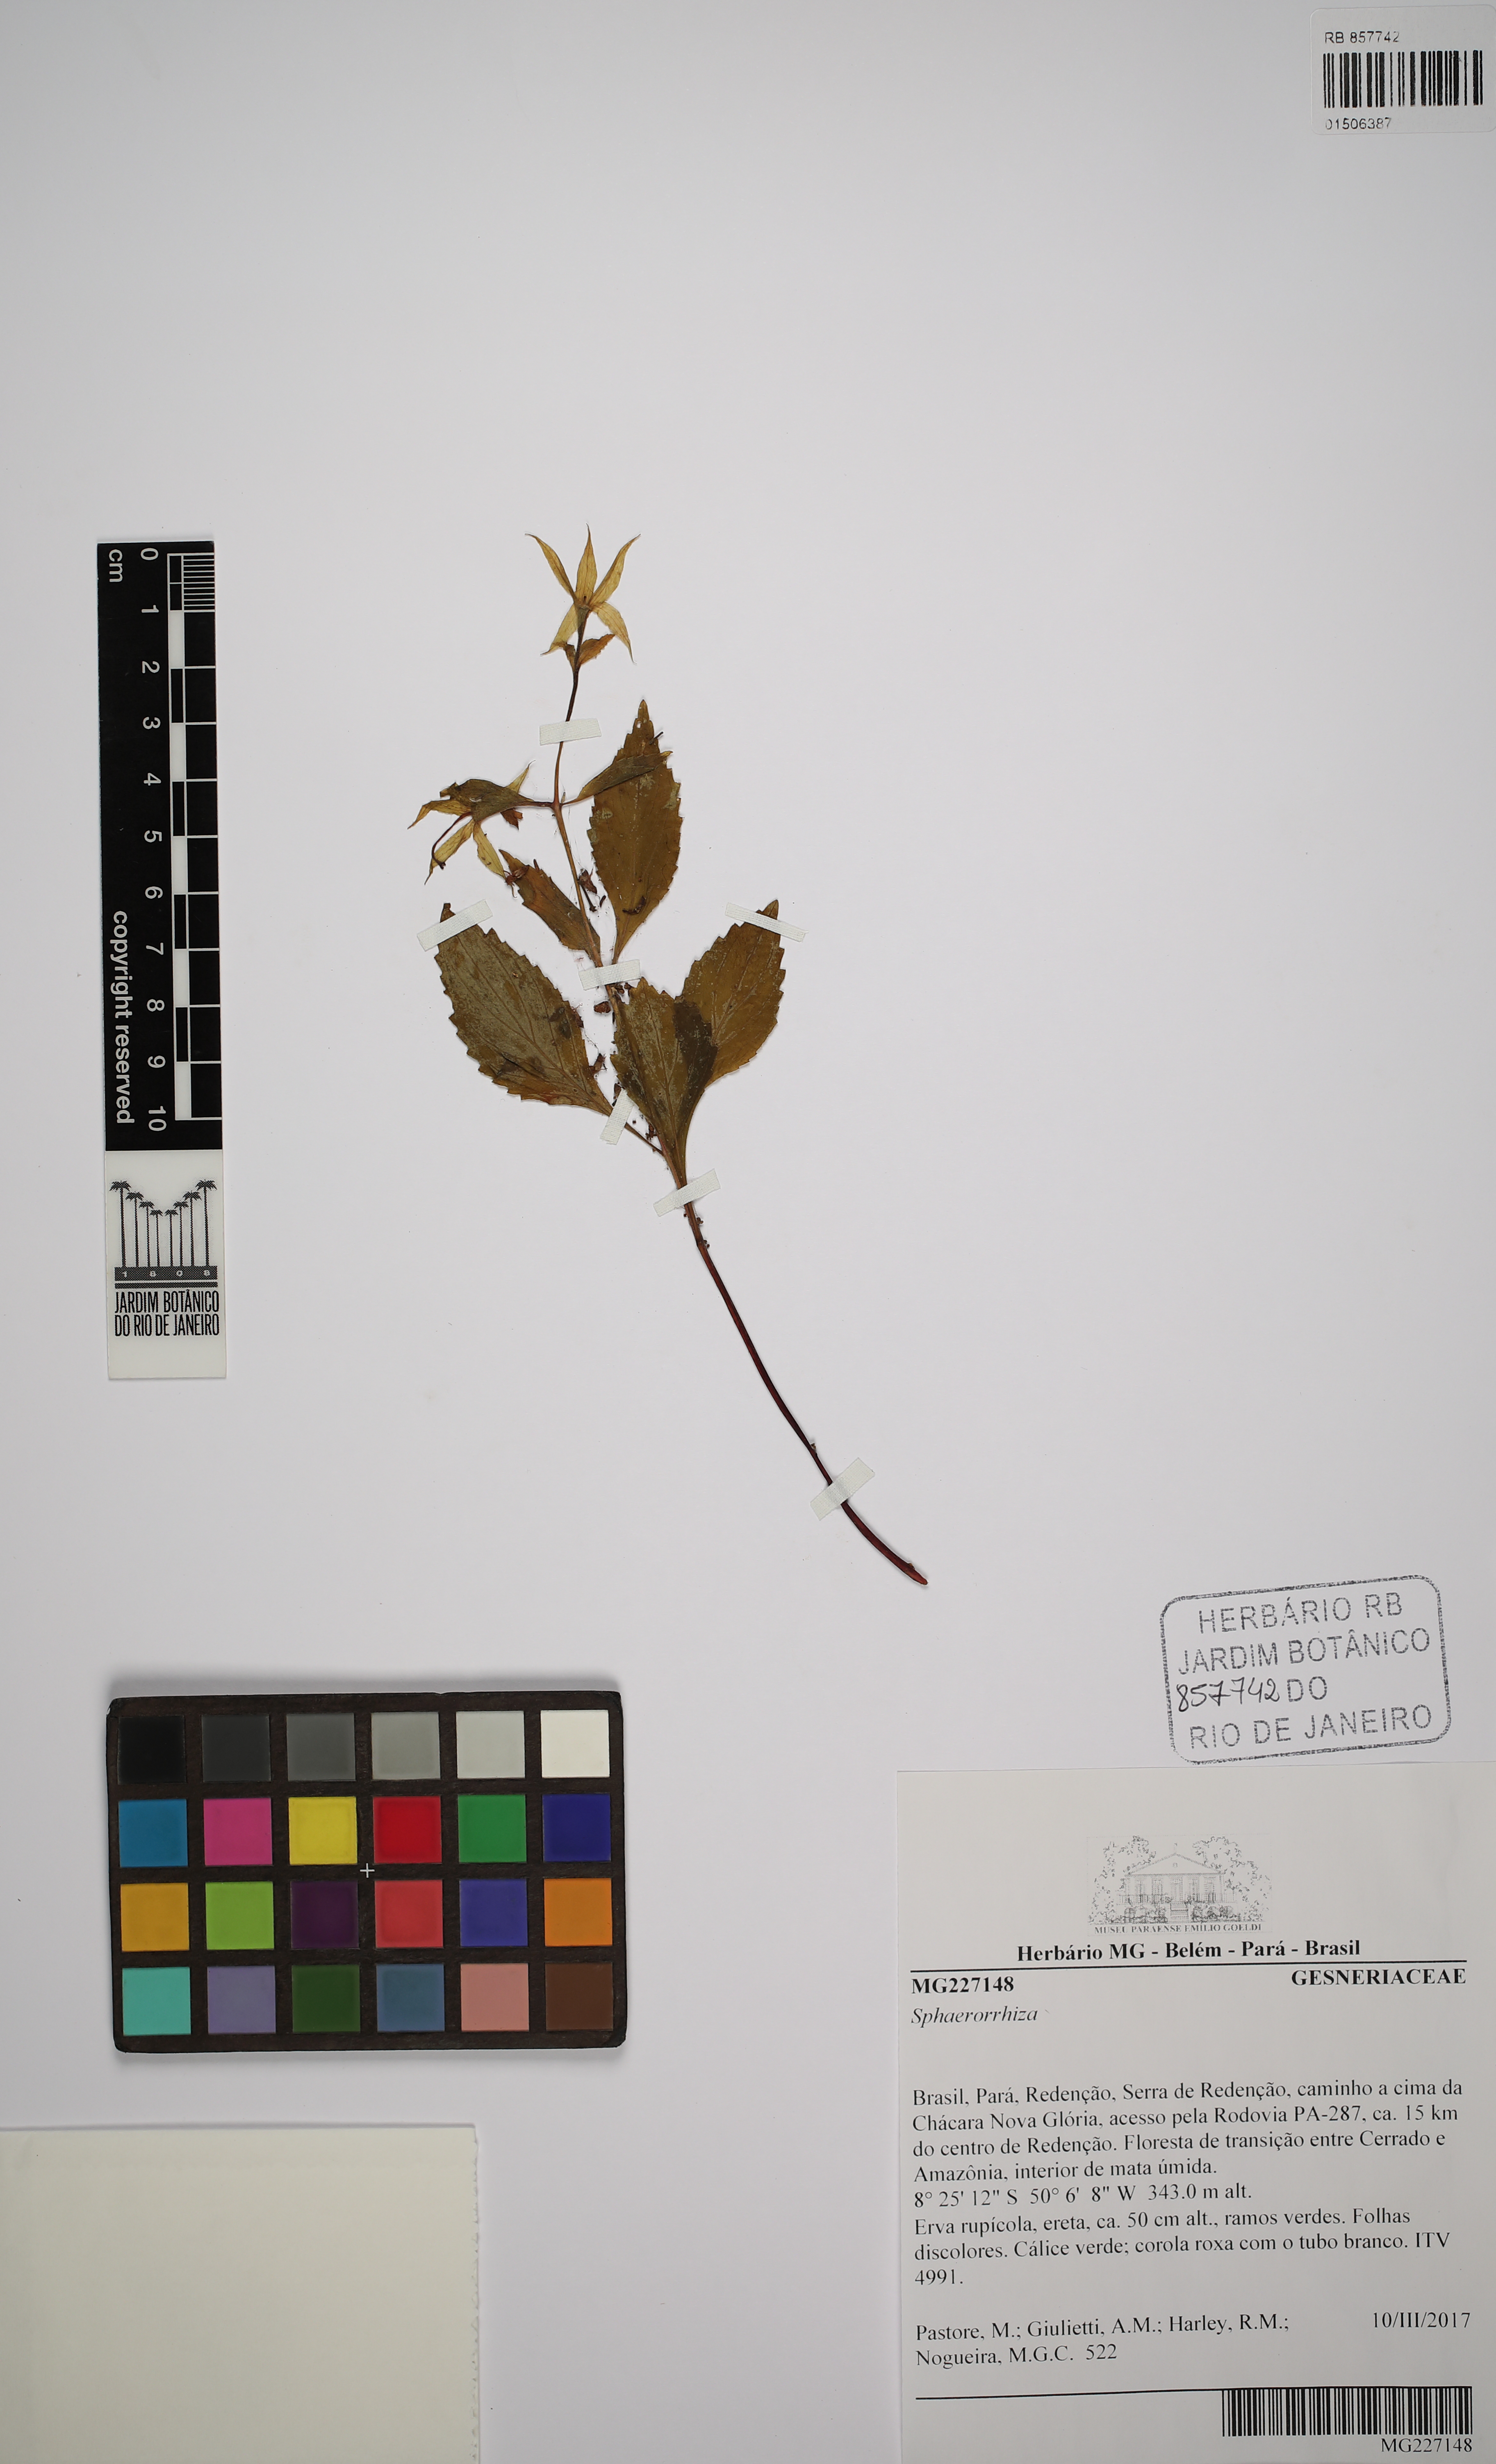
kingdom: Plantae
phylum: Tracheophyta
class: Magnoliopsida
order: Lamiales
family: Gesneriaceae
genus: Sphaerorrhiza
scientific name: Sphaerorrhiza
